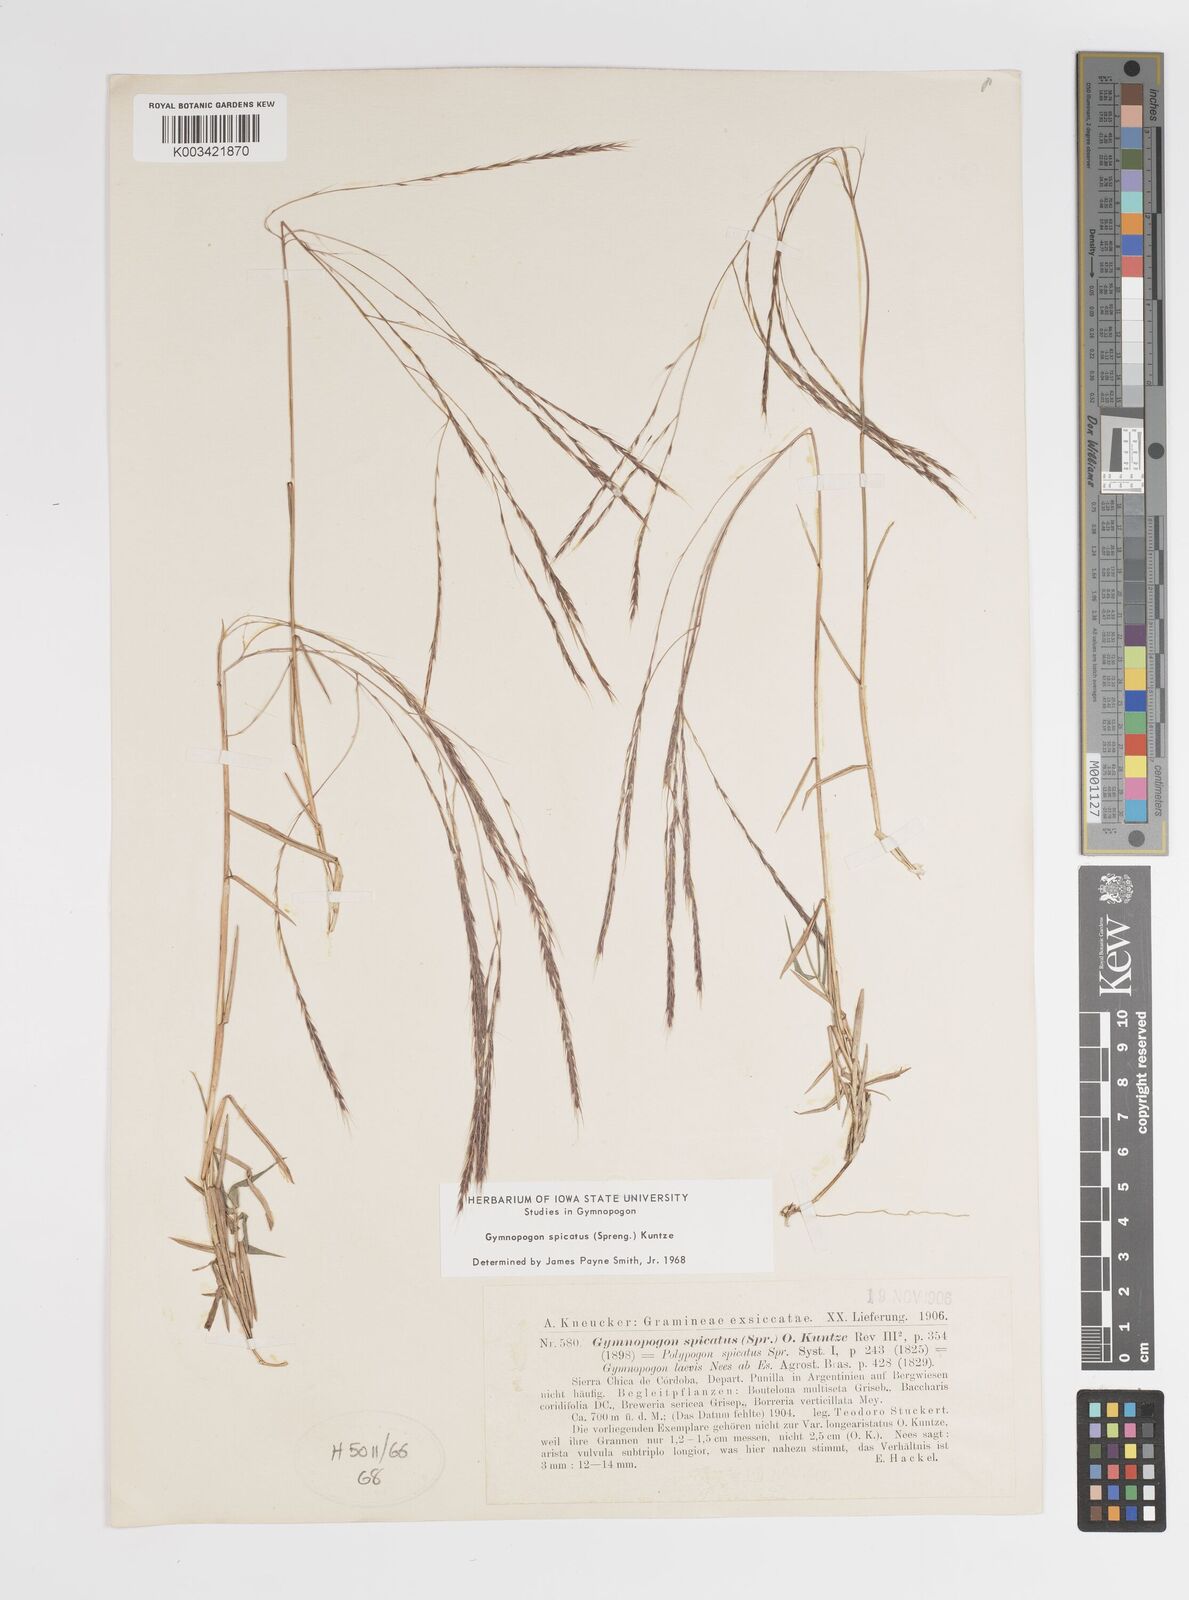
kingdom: Plantae
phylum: Tracheophyta
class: Liliopsida
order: Poales
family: Poaceae
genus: Gymnopogon
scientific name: Gymnopogon spicatus
